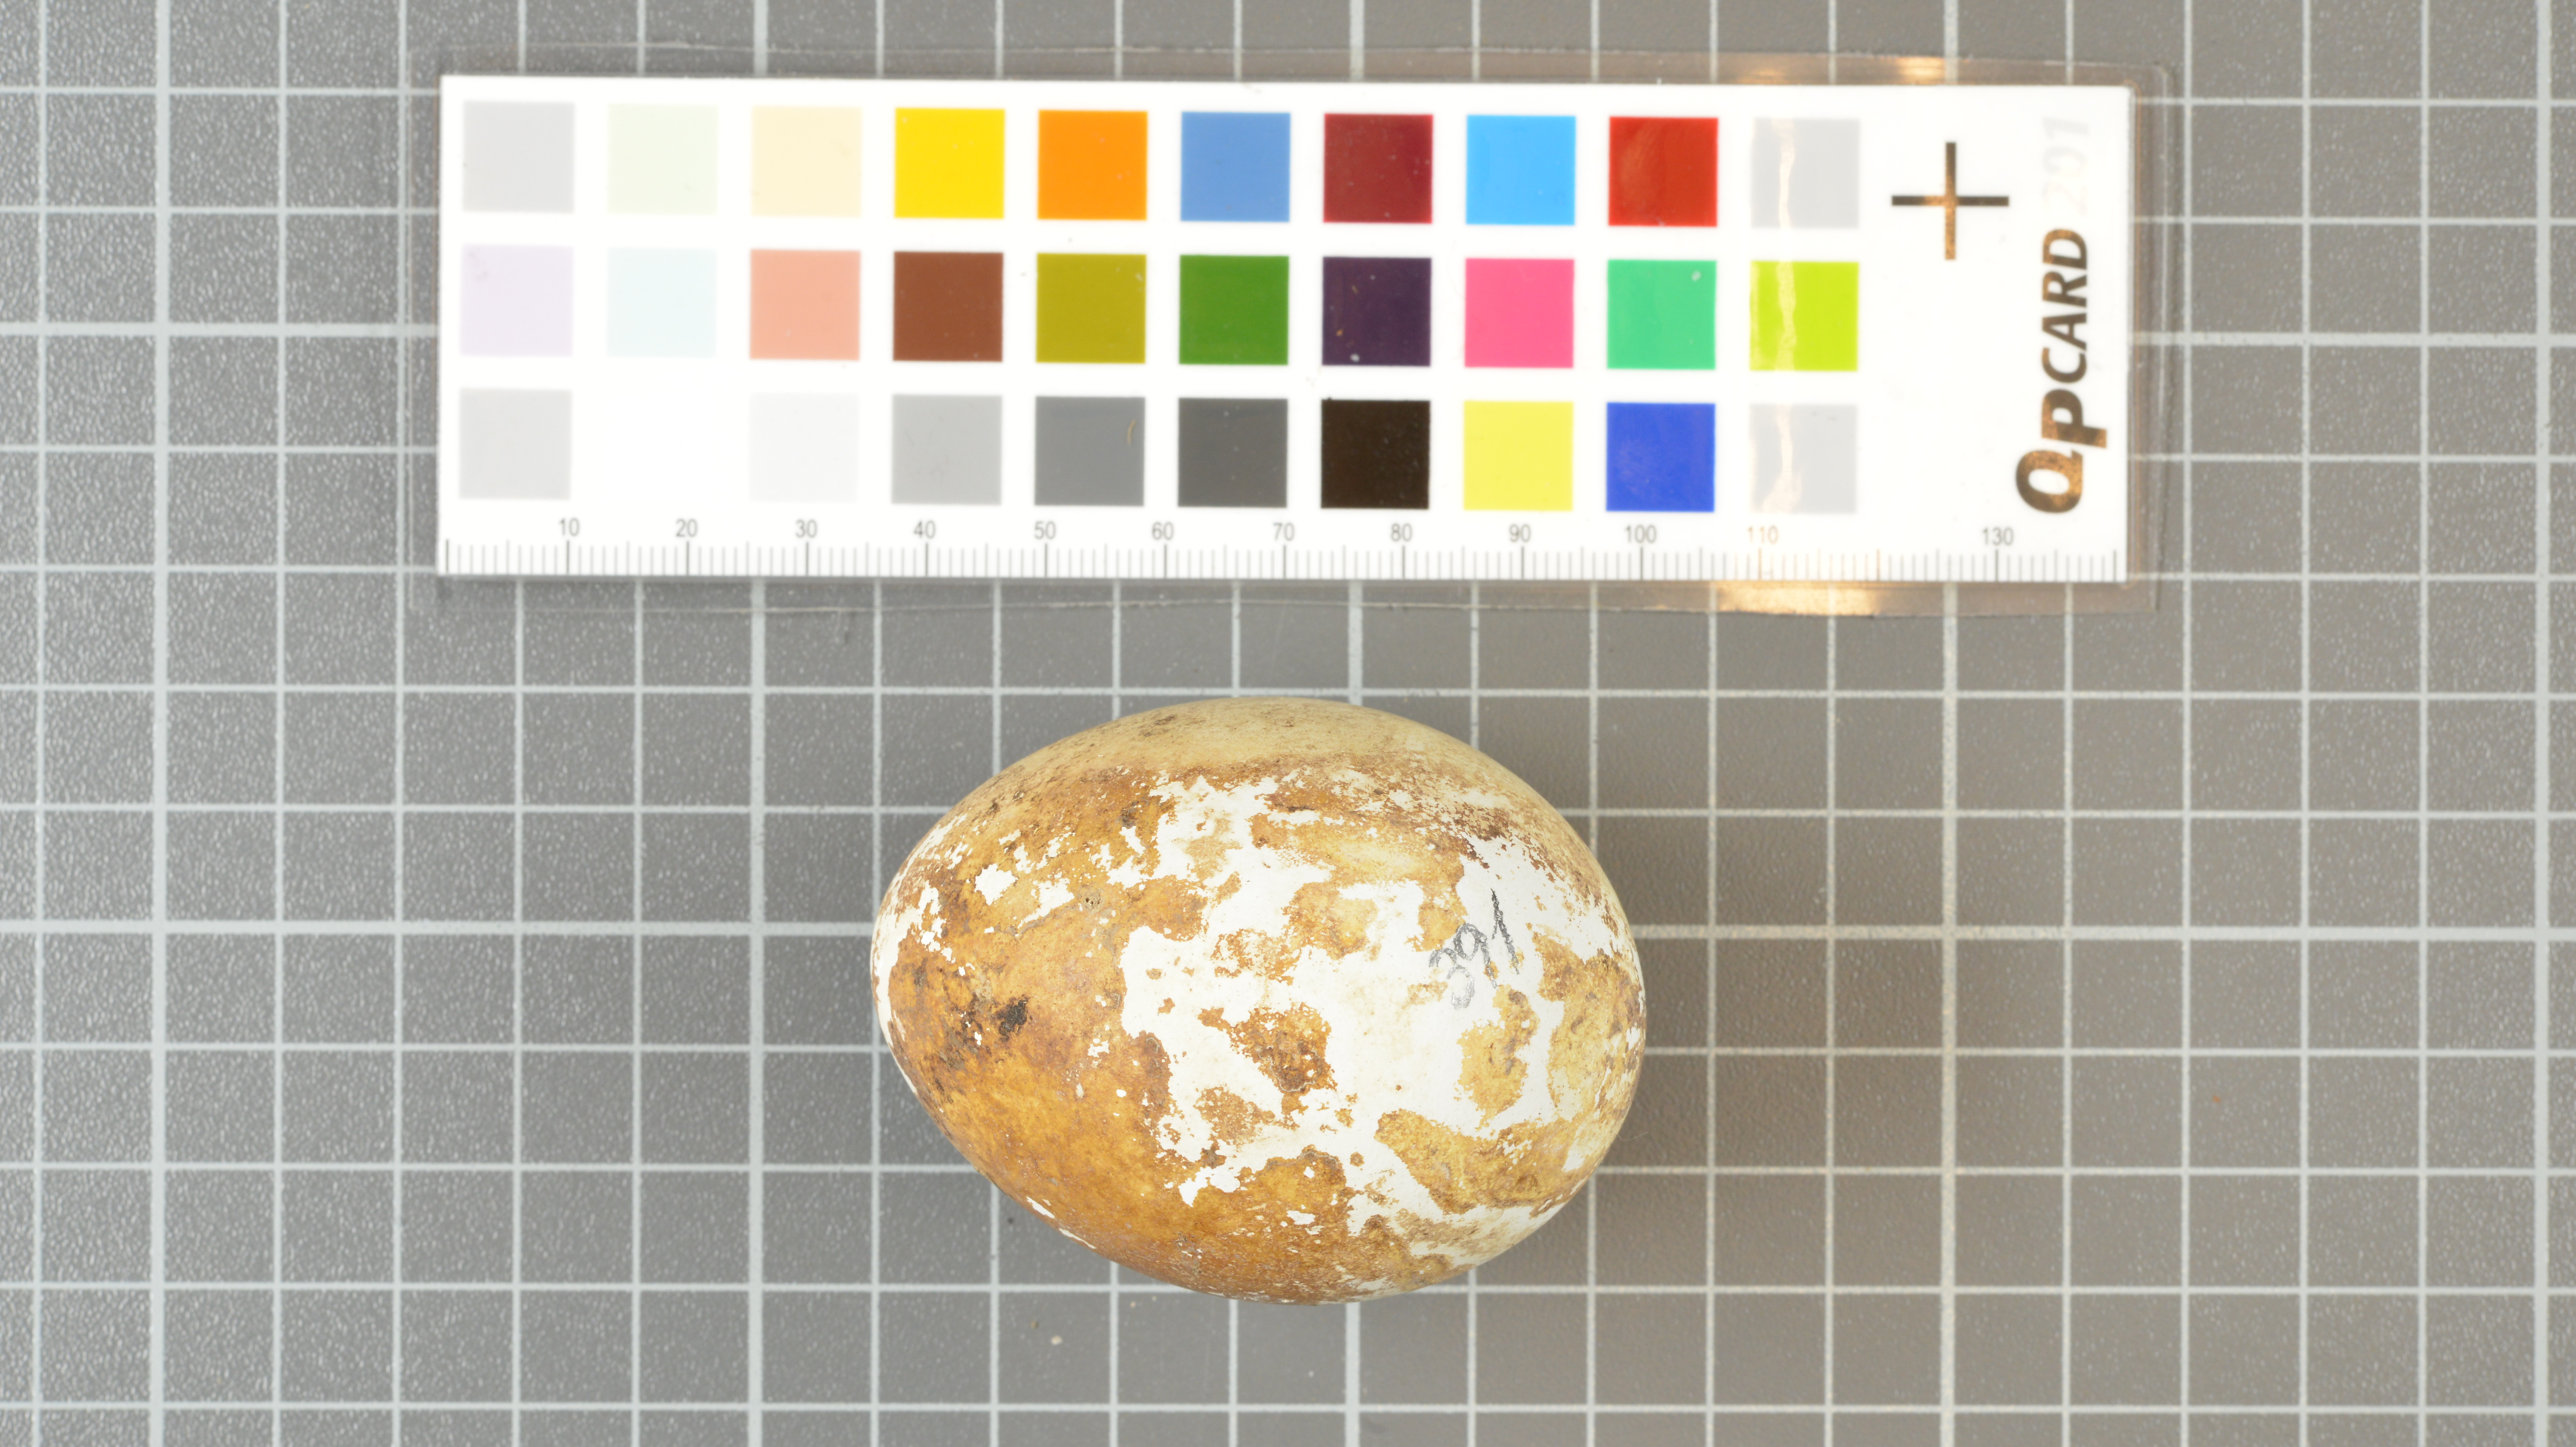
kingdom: Animalia
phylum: Chordata
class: Aves
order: Sphenisciformes
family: Spheniscidae
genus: Eudyptes
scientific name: Eudyptes moseleyi
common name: Northern rockhopper penguin
